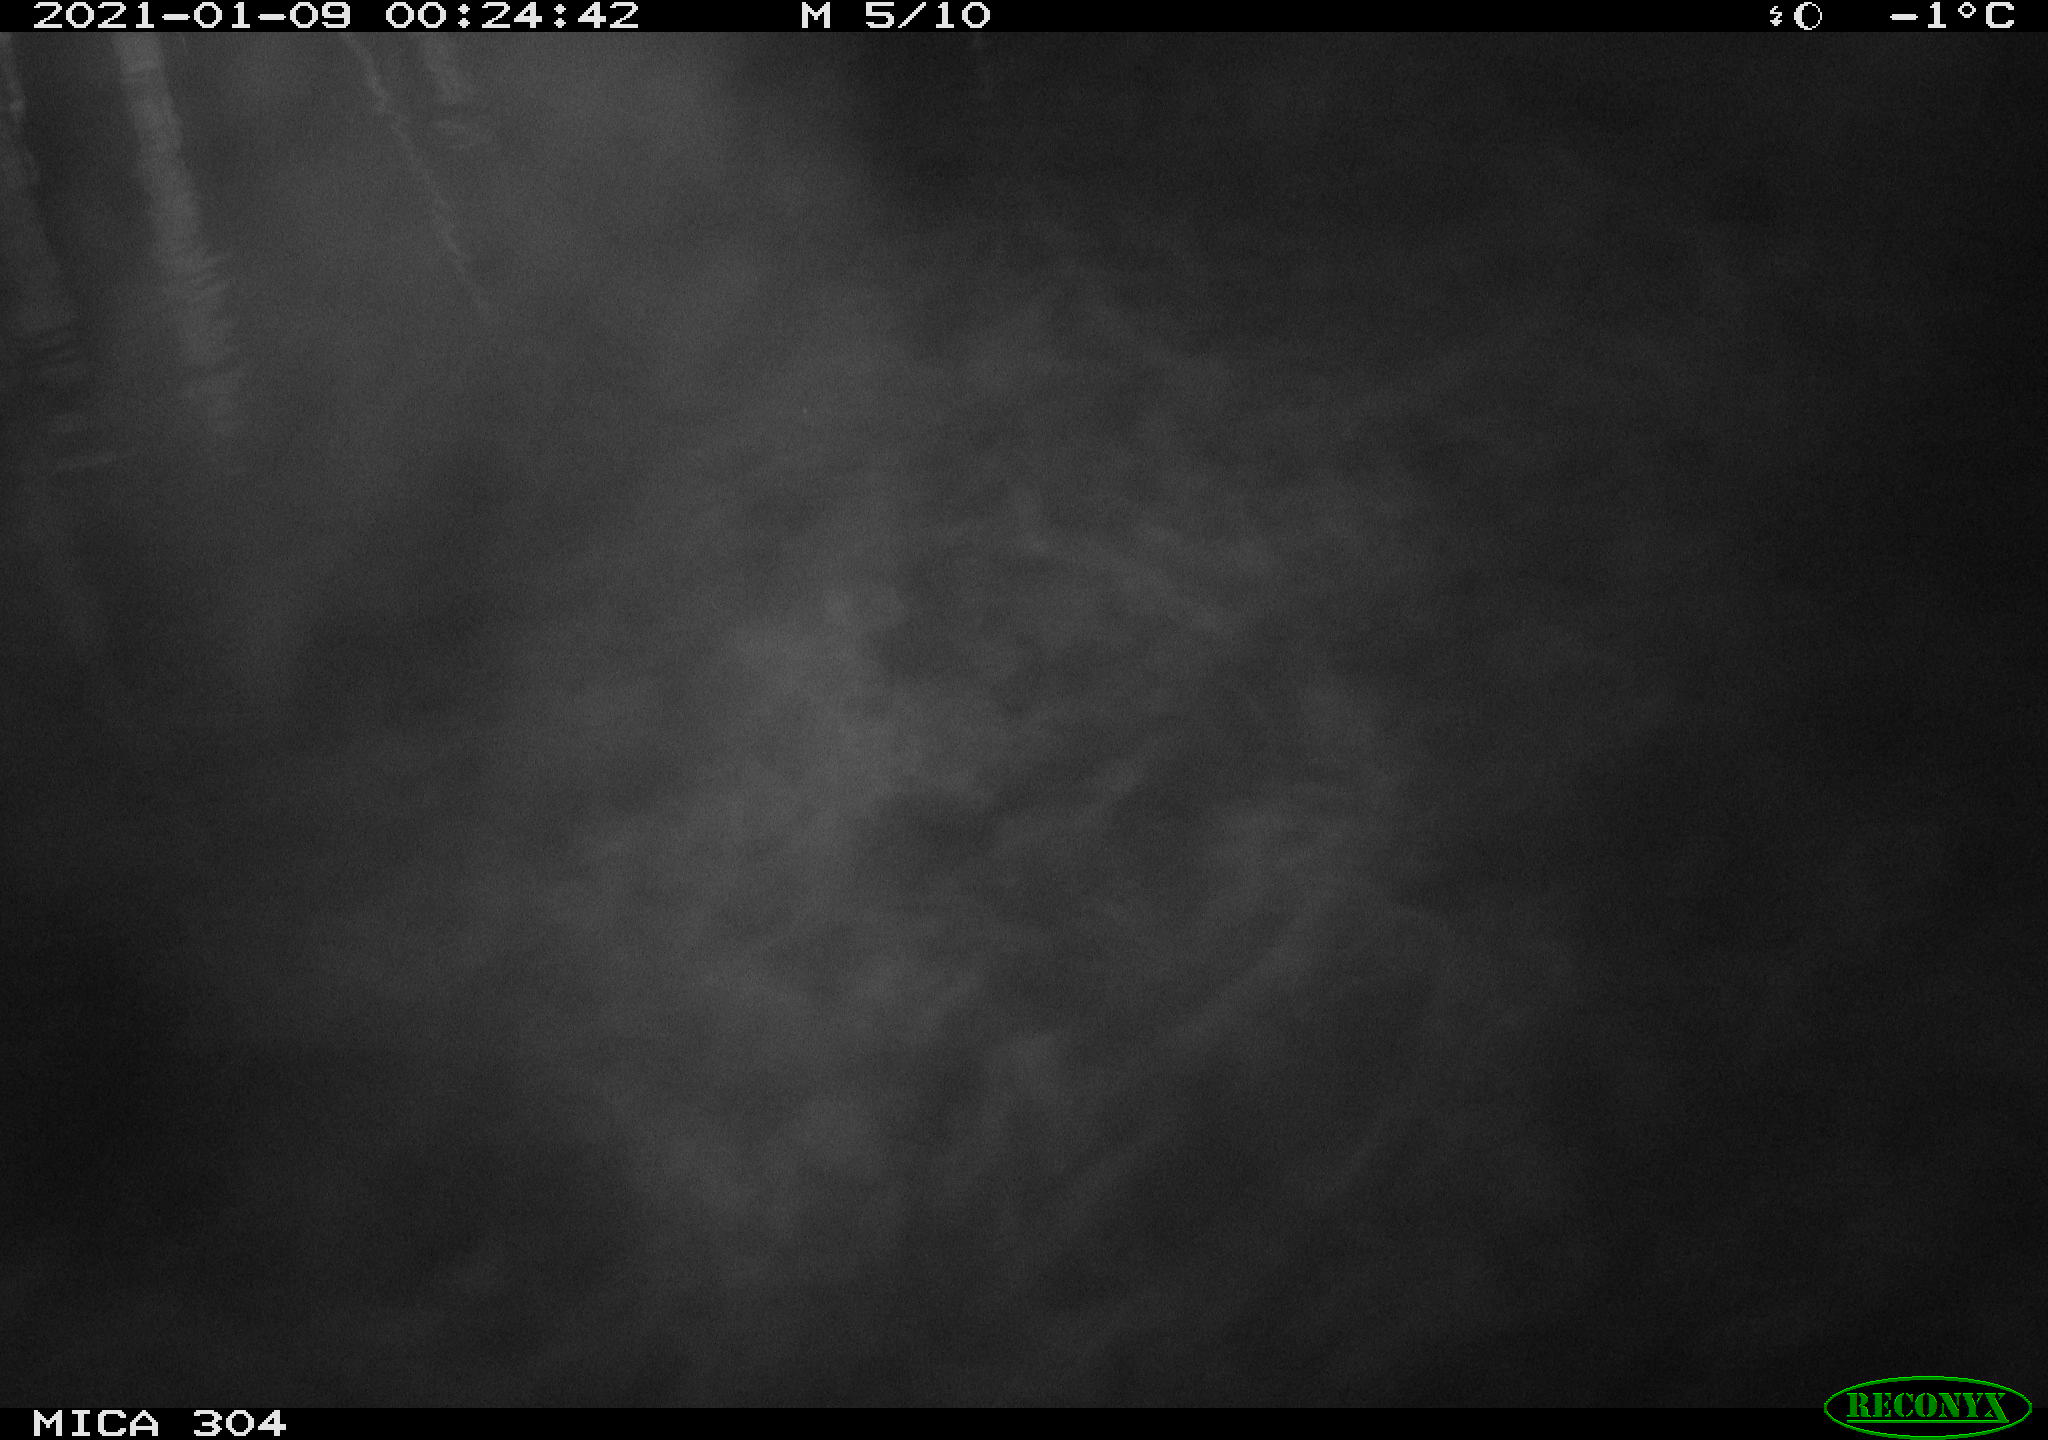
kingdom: Animalia
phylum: Chordata
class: Mammalia
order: Rodentia
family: Muridae
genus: Rattus
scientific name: Rattus norvegicus
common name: Brown rat
